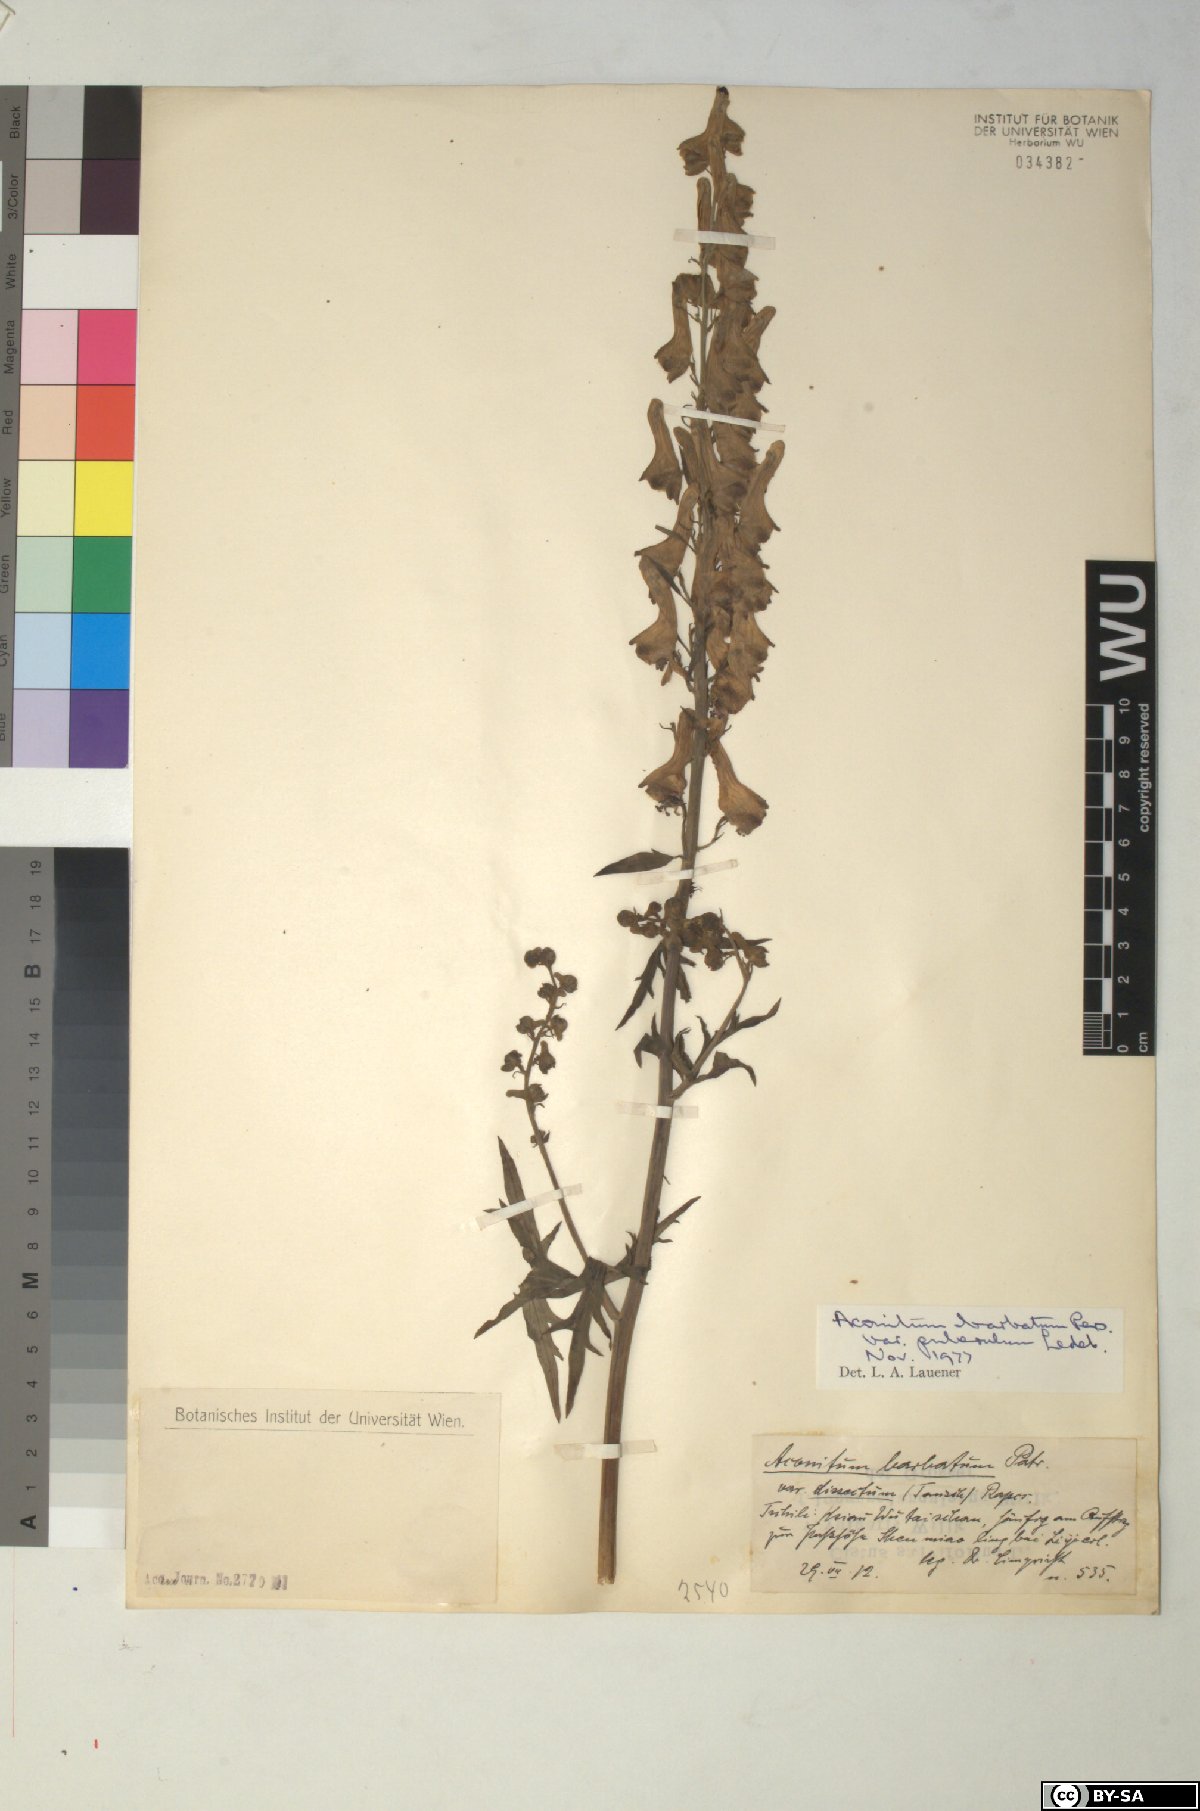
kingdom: Plantae
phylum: Tracheophyta
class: Magnoliopsida
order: Ranunculales
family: Ranunculaceae
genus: Aconitum
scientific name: Aconitum barbatum
